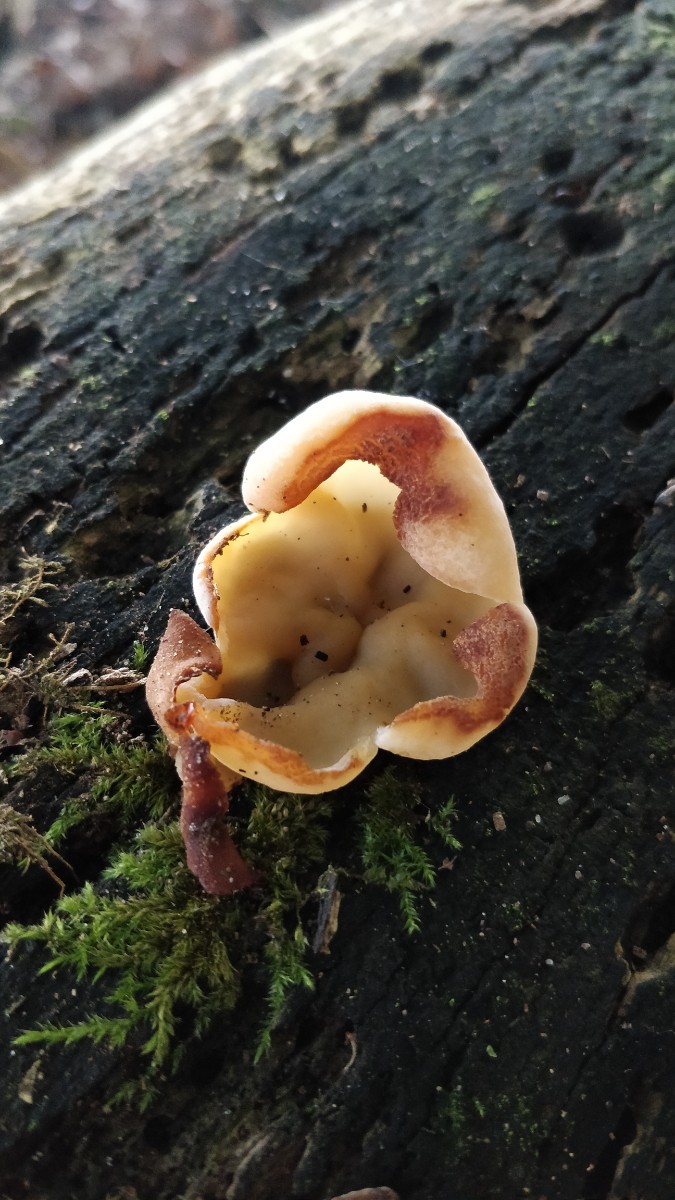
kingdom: Fungi
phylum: Ascomycota
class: Pezizomycetes
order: Pezizales
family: Pezizaceae
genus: Peziza
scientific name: Peziza varia
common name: Ved-bægersvamp
